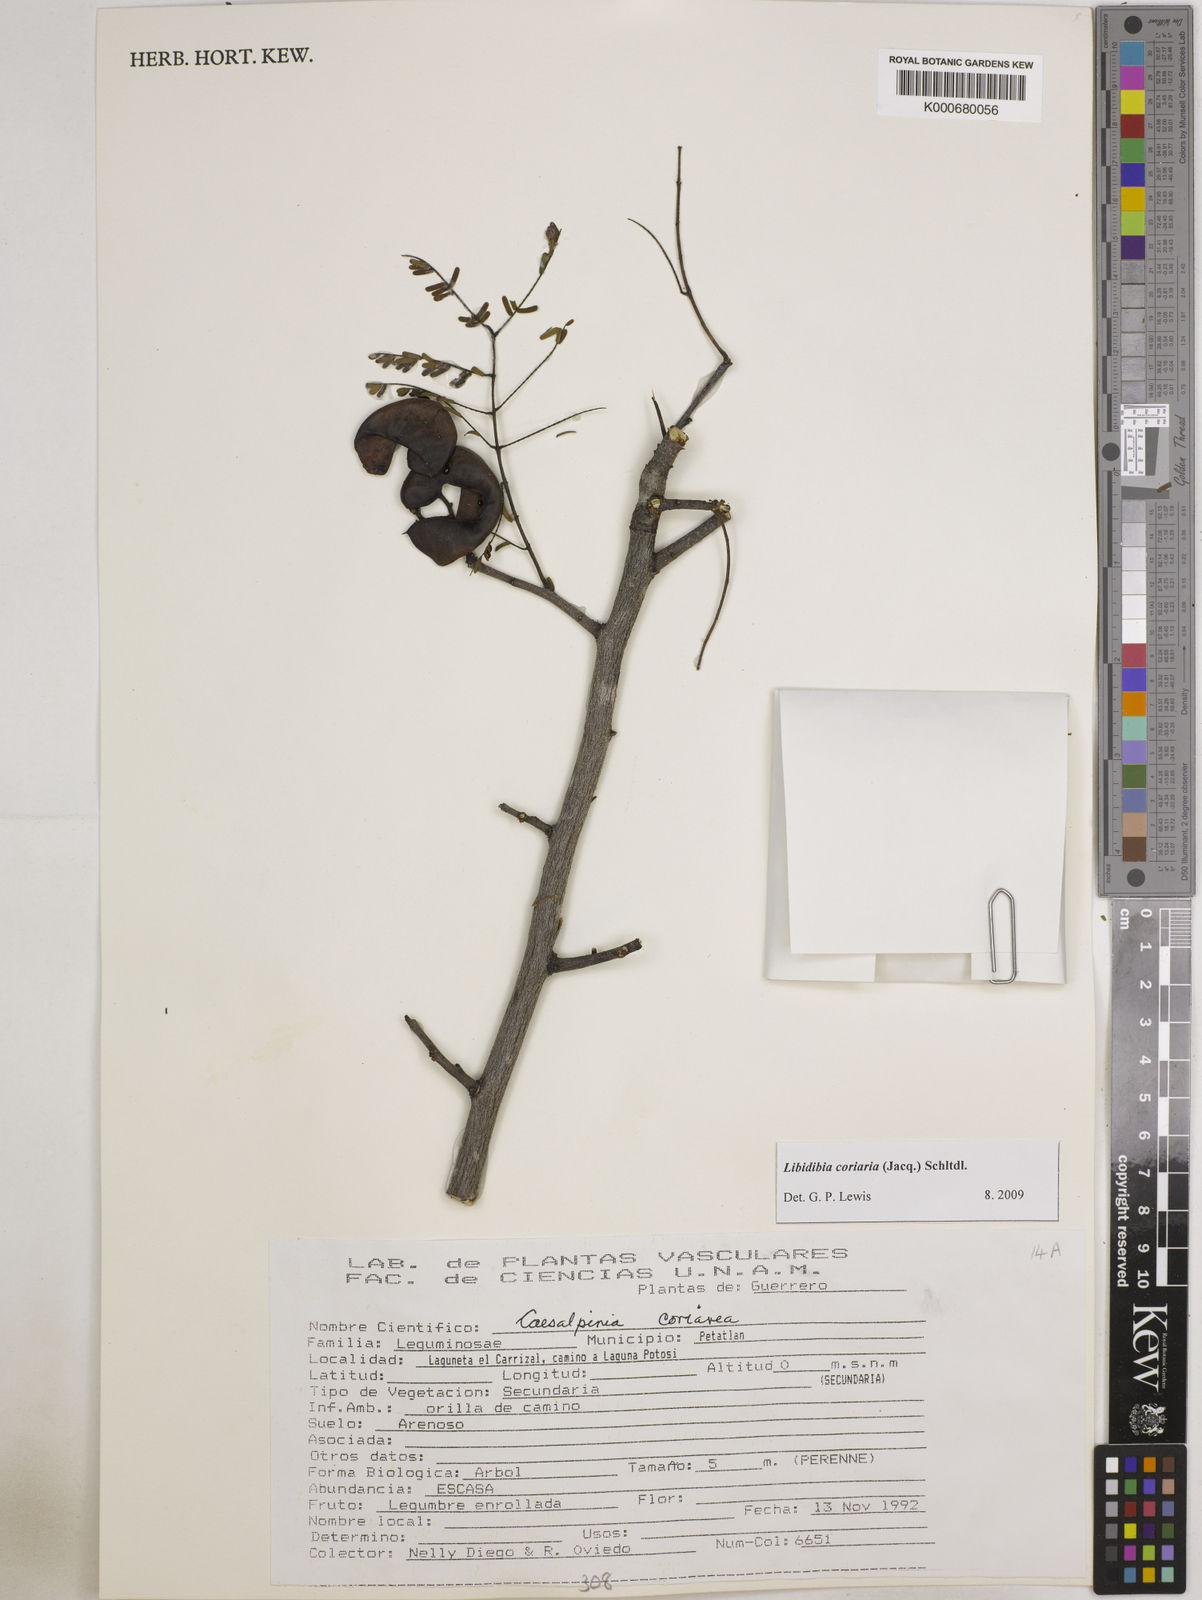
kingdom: Plantae
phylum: Tracheophyta
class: Magnoliopsida
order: Fabales
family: Fabaceae
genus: Libidibia
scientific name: Libidibia coriaria
